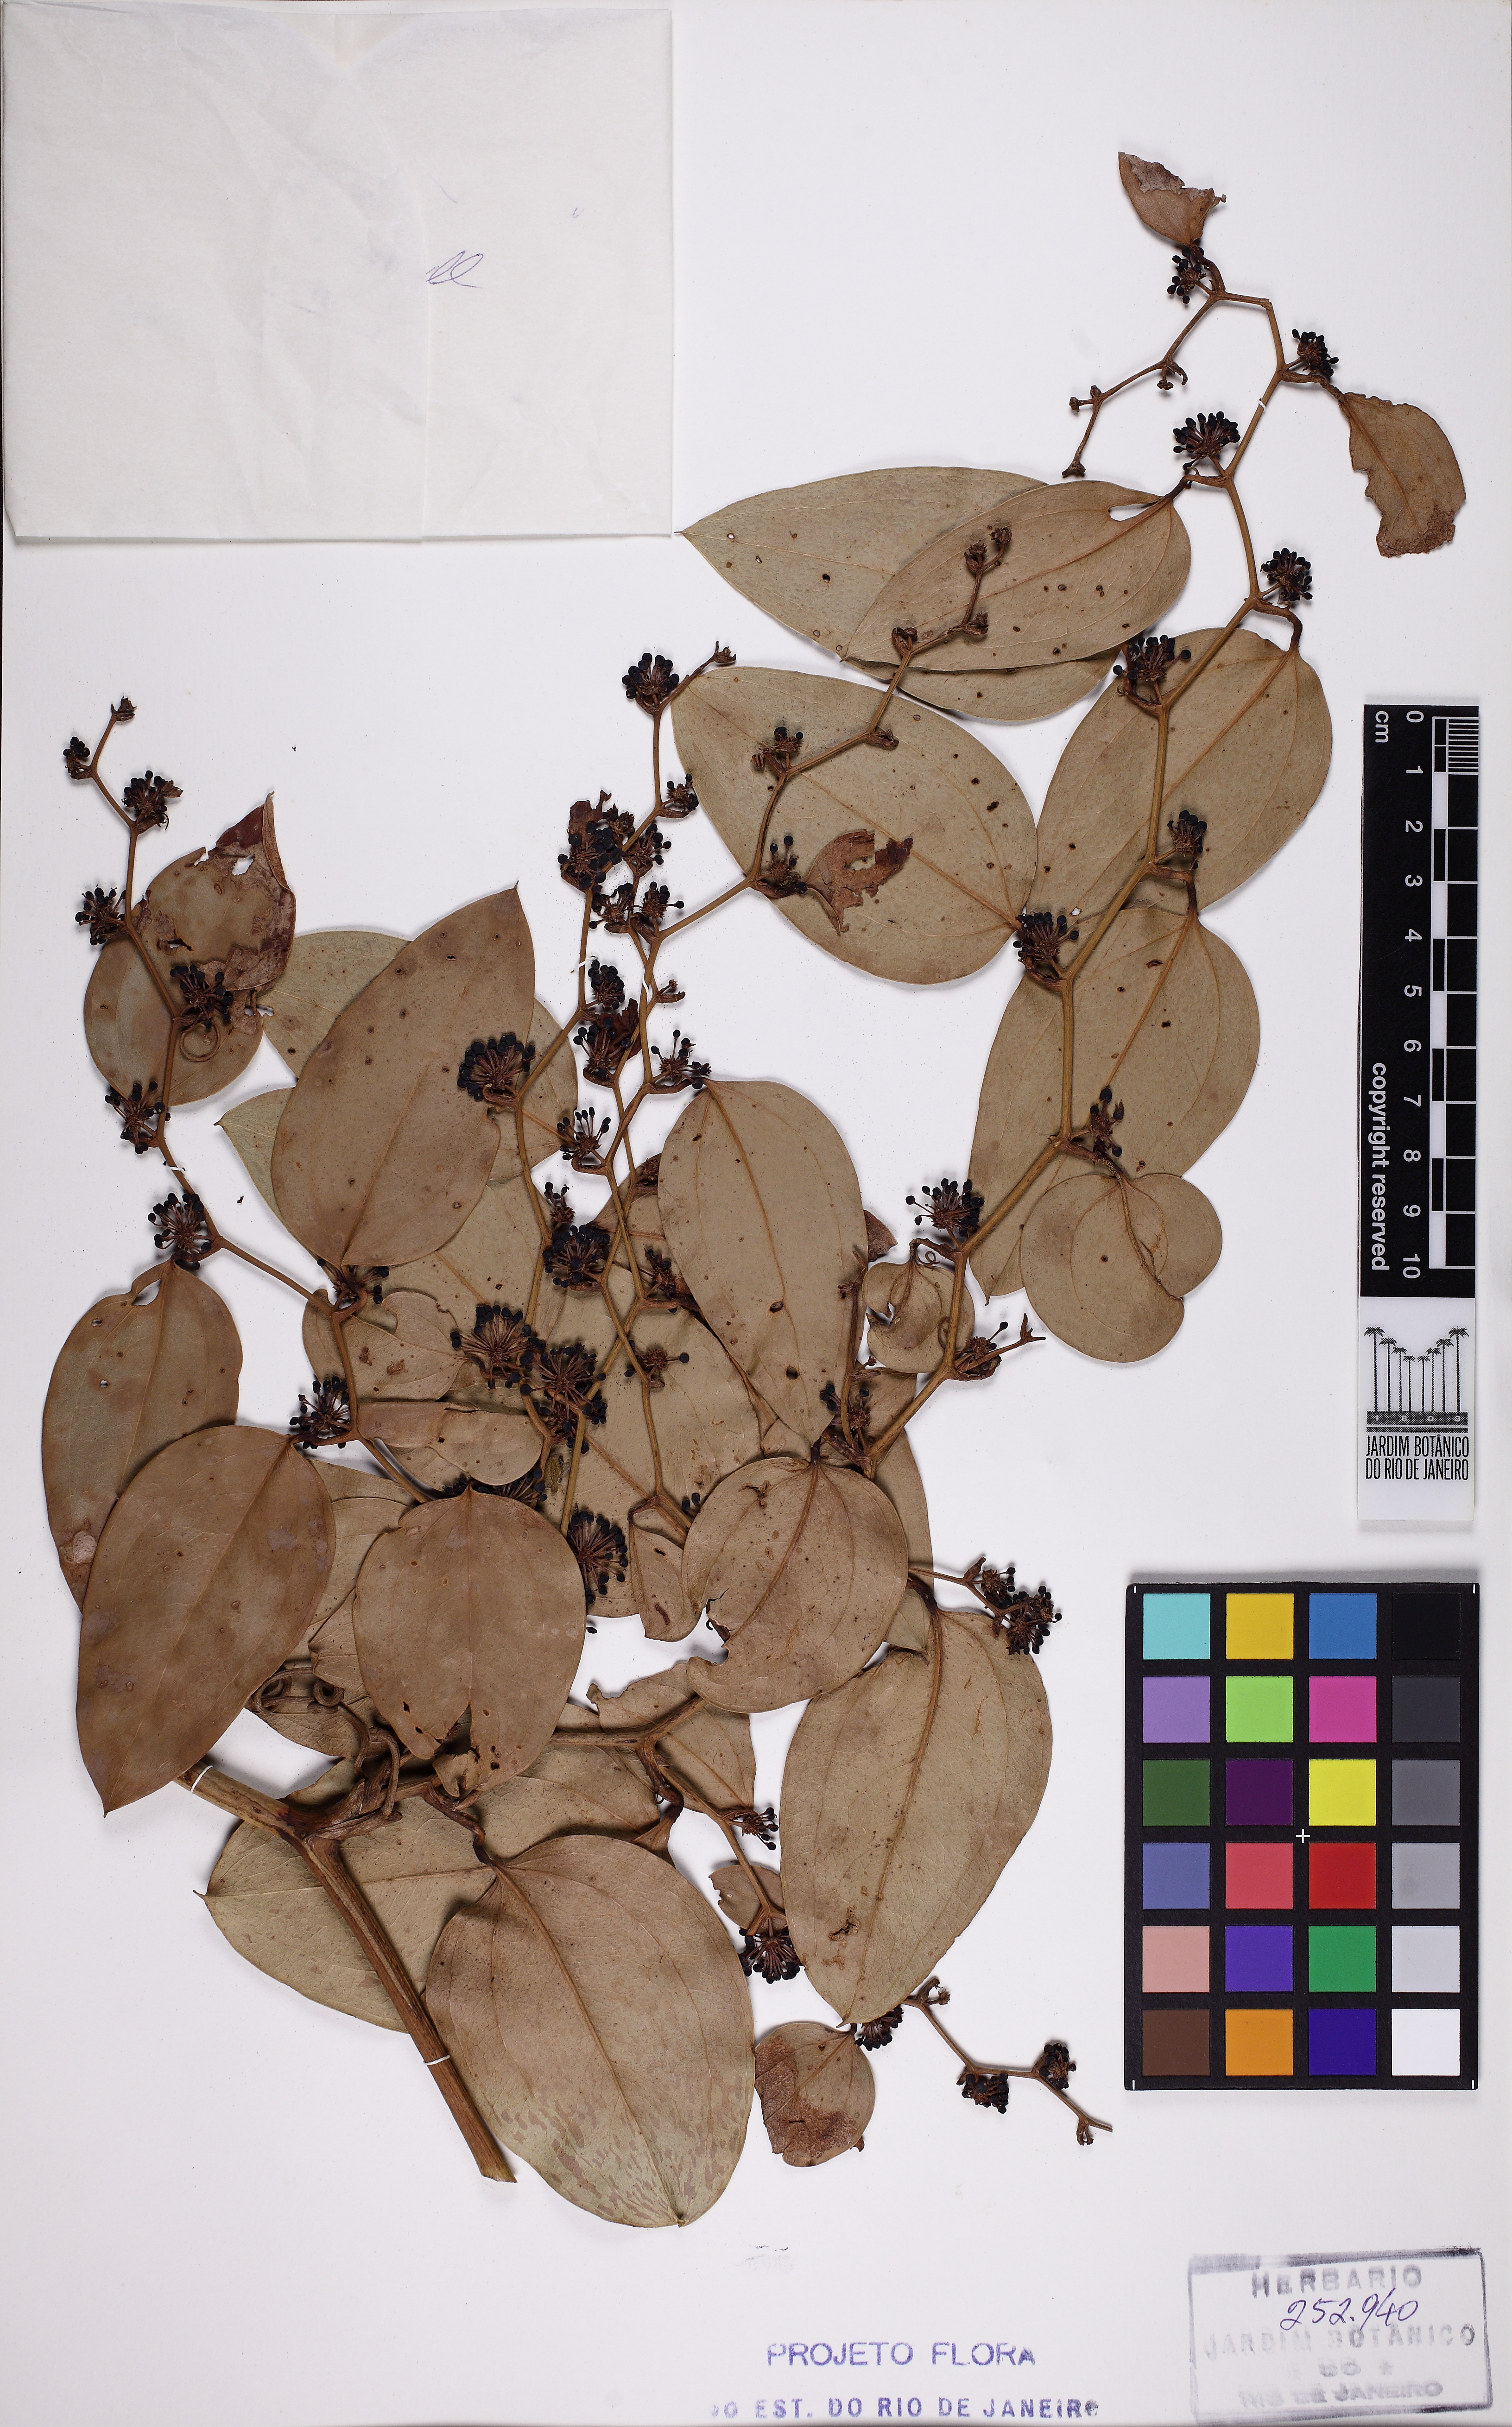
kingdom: Plantae
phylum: Tracheophyta
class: Liliopsida
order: Liliales
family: Smilacaceae
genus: Smilax
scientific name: Smilax elastica
